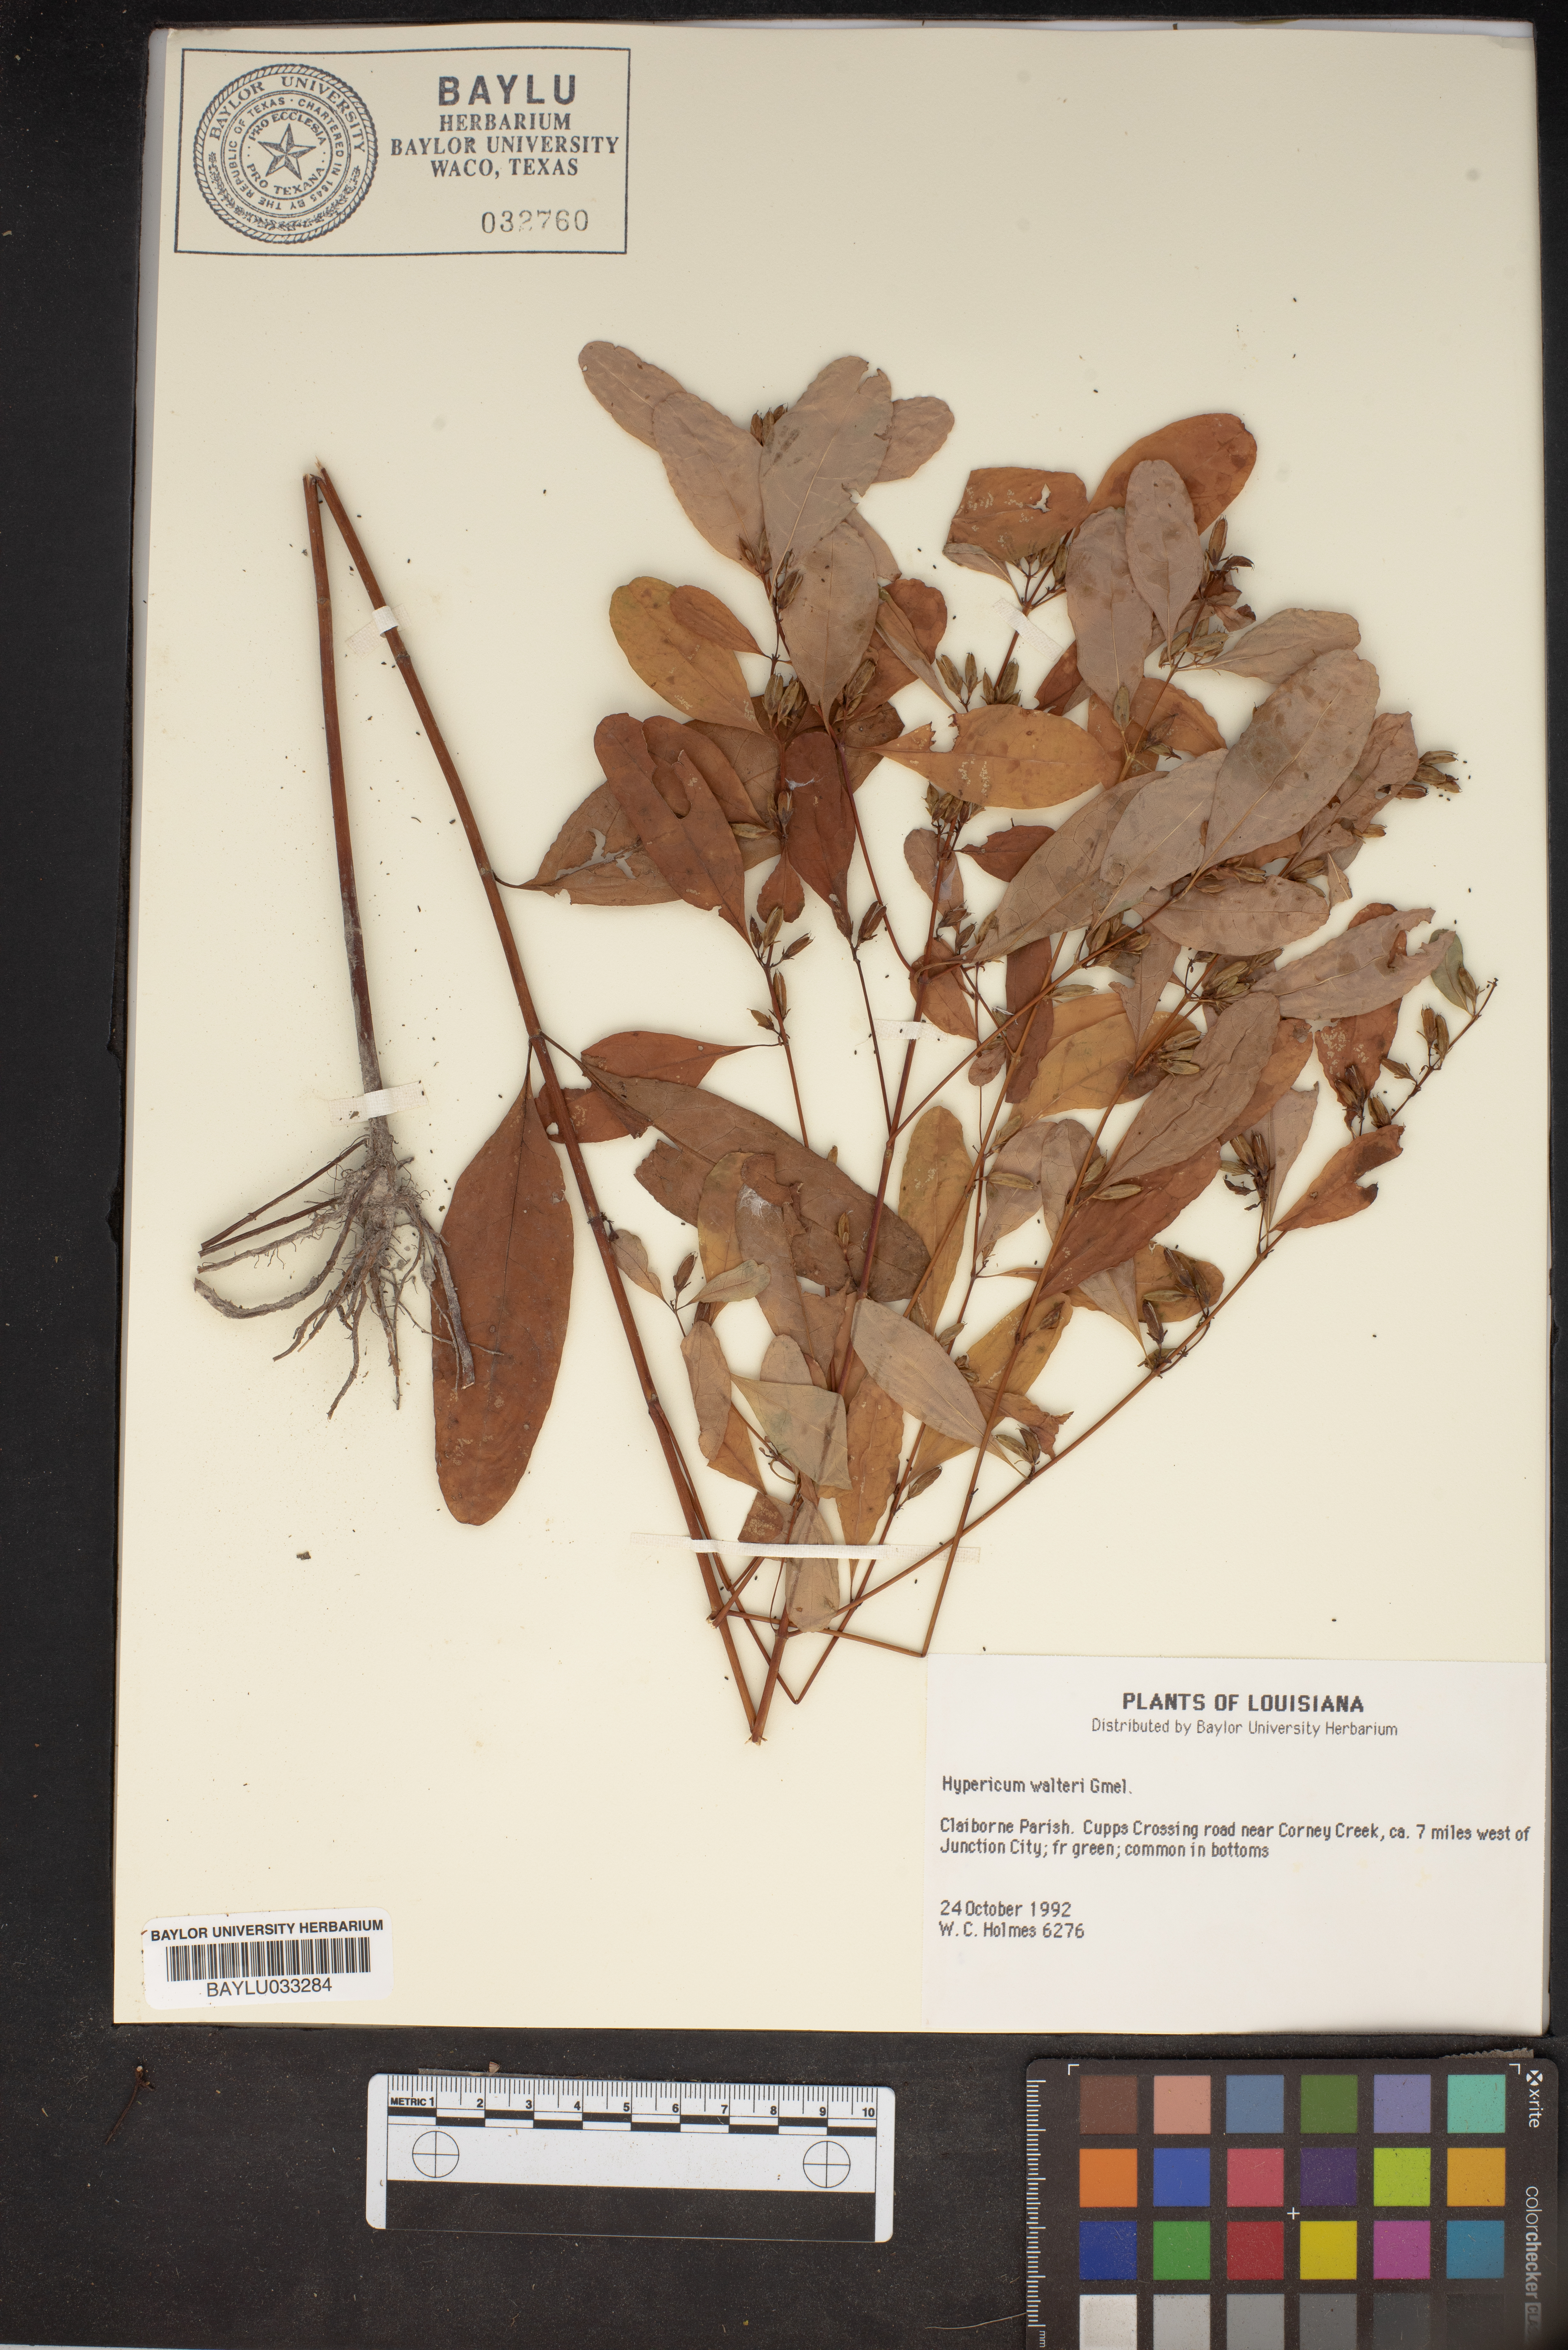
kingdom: Plantae
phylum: Tracheophyta
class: Magnoliopsida
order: Malpighiales
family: Hypericaceae
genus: Triadenum
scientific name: Triadenum walteri
